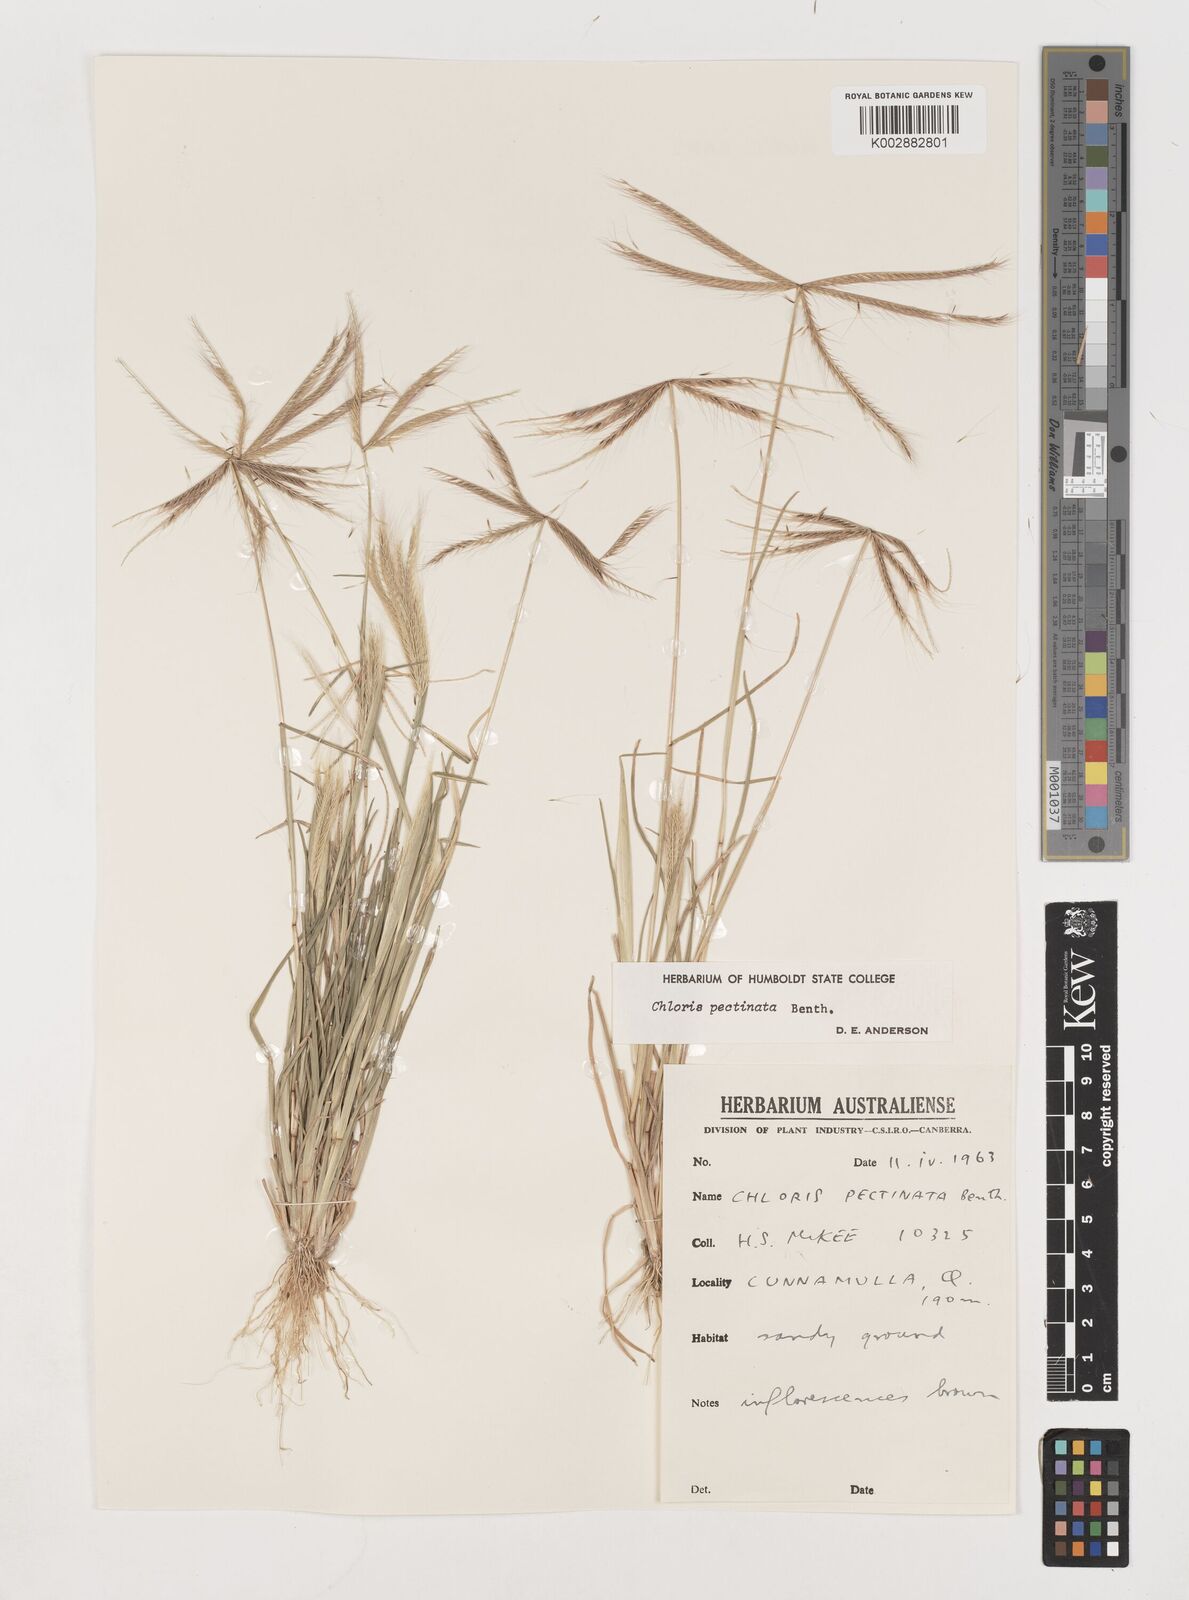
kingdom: Plantae
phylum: Tracheophyta
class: Liliopsida
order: Poales
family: Poaceae
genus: Chloris
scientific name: Chloris pectinata
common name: Comb windmill grass
